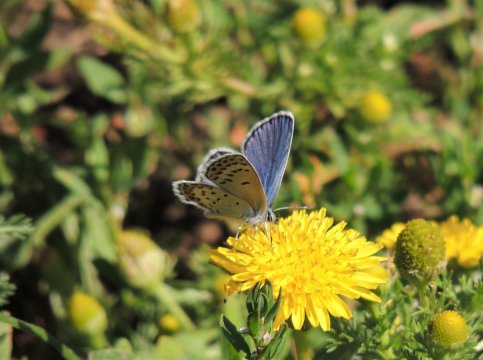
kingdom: Animalia
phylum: Arthropoda
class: Insecta
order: Lepidoptera
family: Lycaenidae
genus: Lycaeides
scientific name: Lycaeides melissa
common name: Melissa Blue
